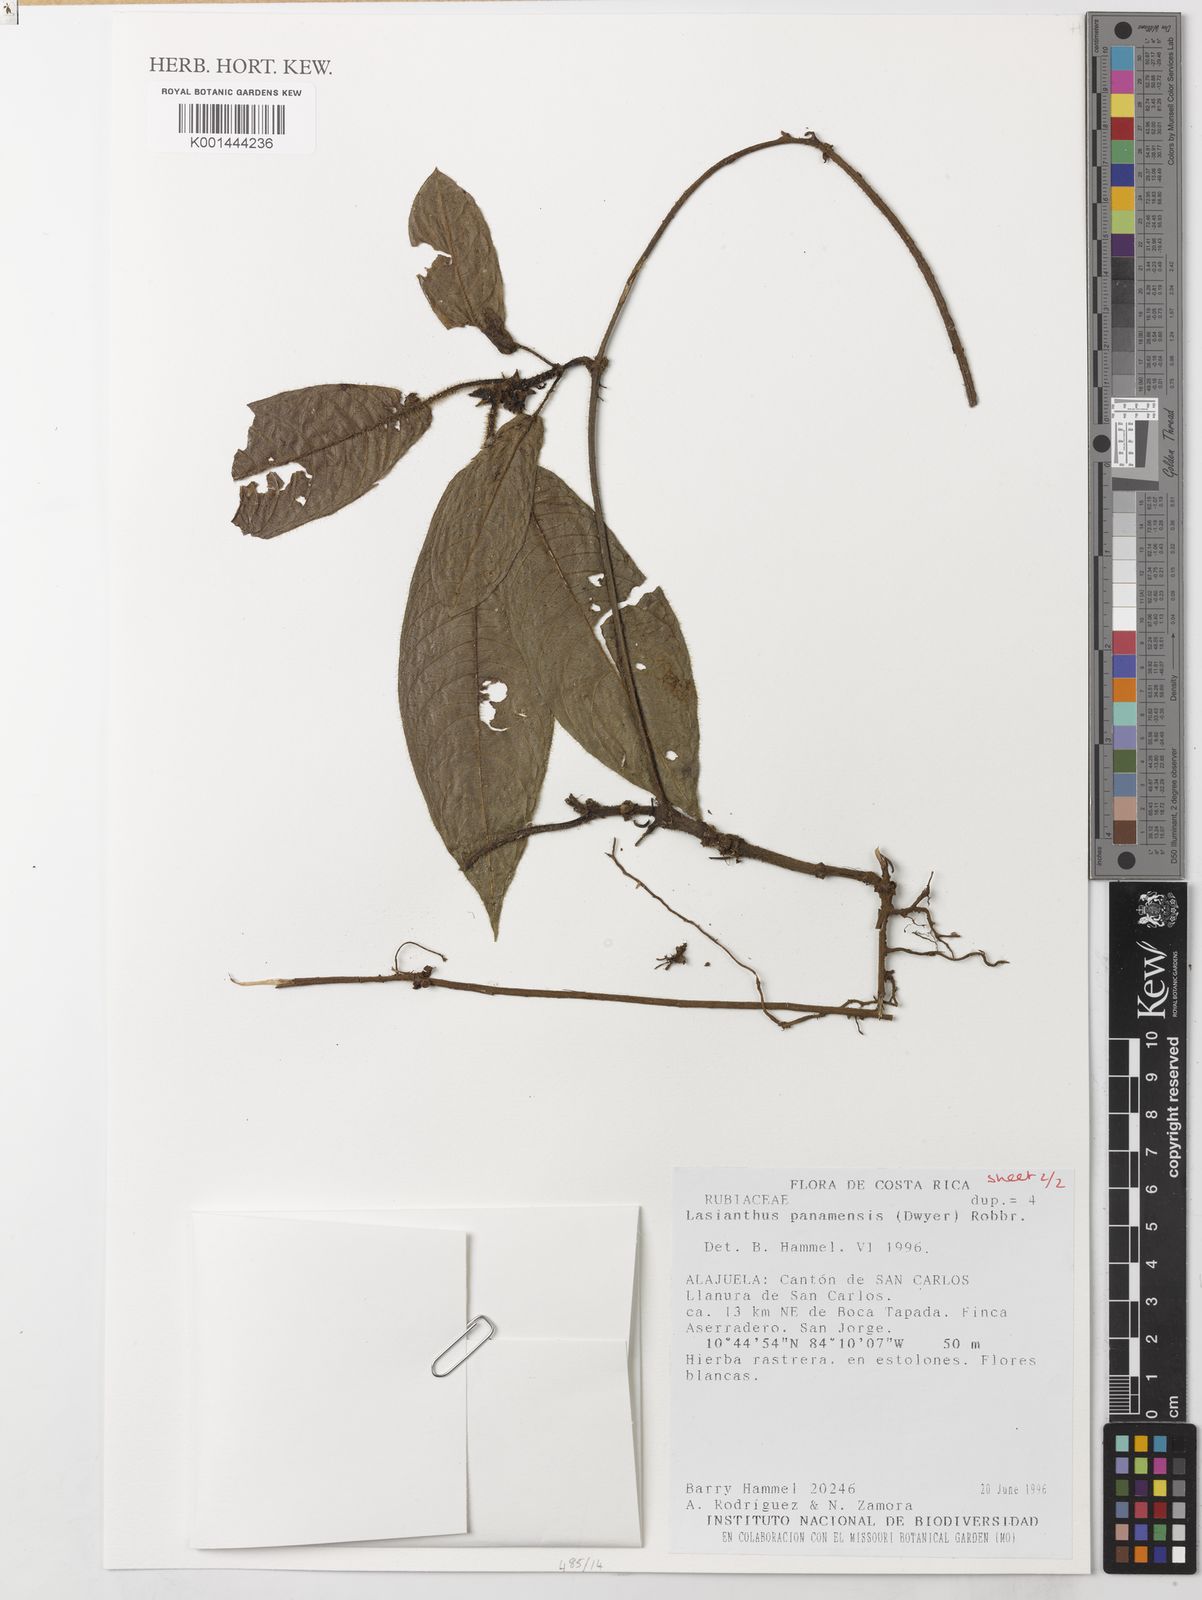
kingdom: Plantae
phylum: Tracheophyta
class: Magnoliopsida
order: Gentianales
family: Rubiaceae
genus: Lasianthus
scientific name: Lasianthus panamensis
